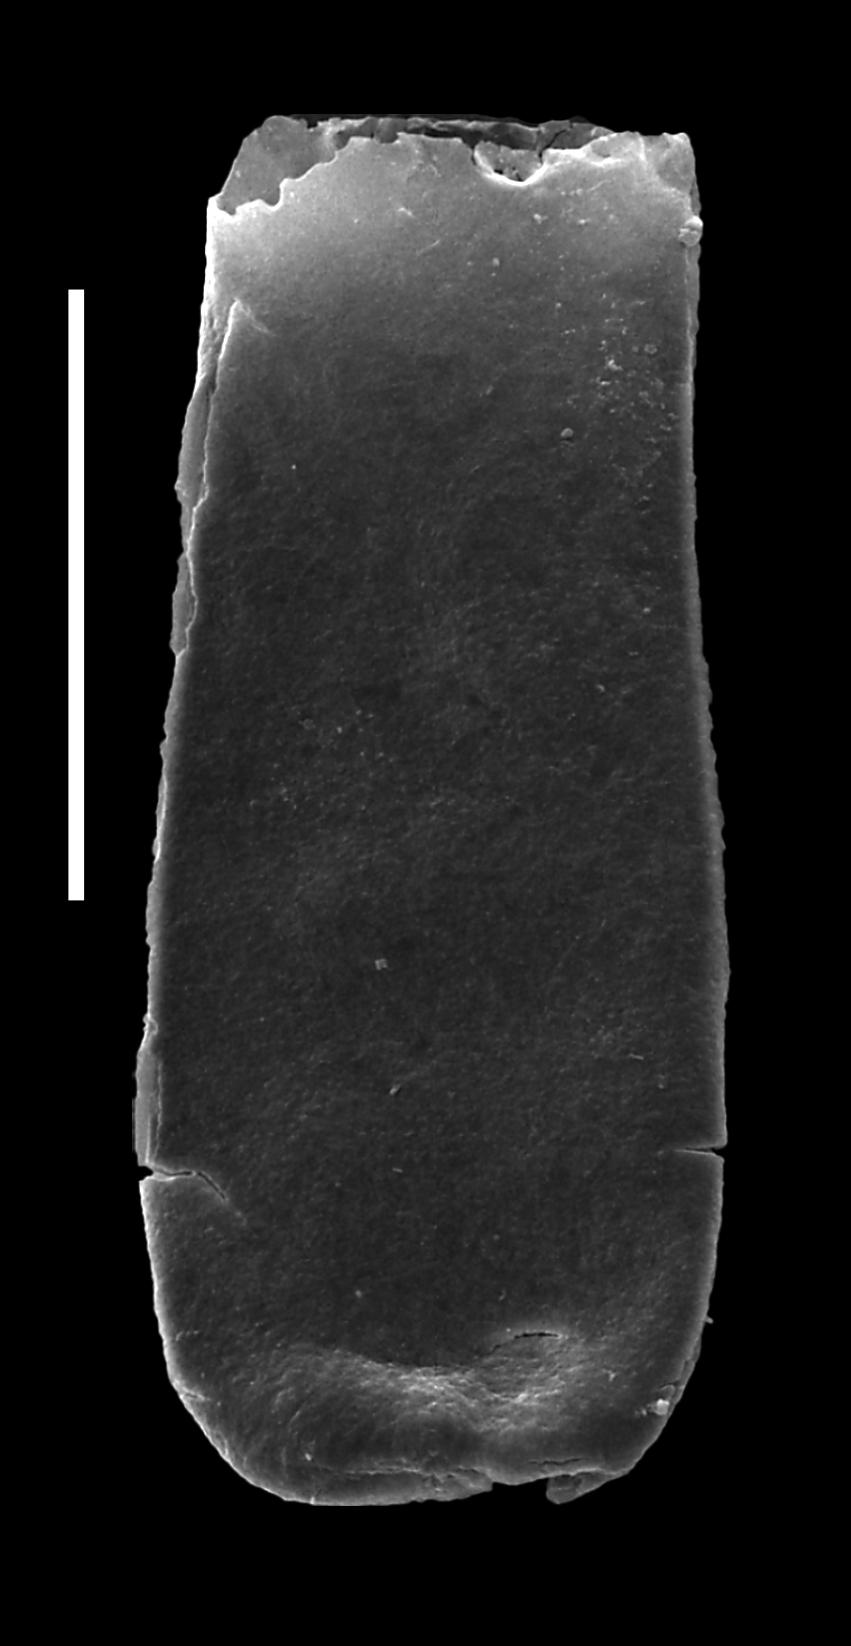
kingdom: Animalia
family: Conochitinidae
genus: Conochitina
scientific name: Conochitina
